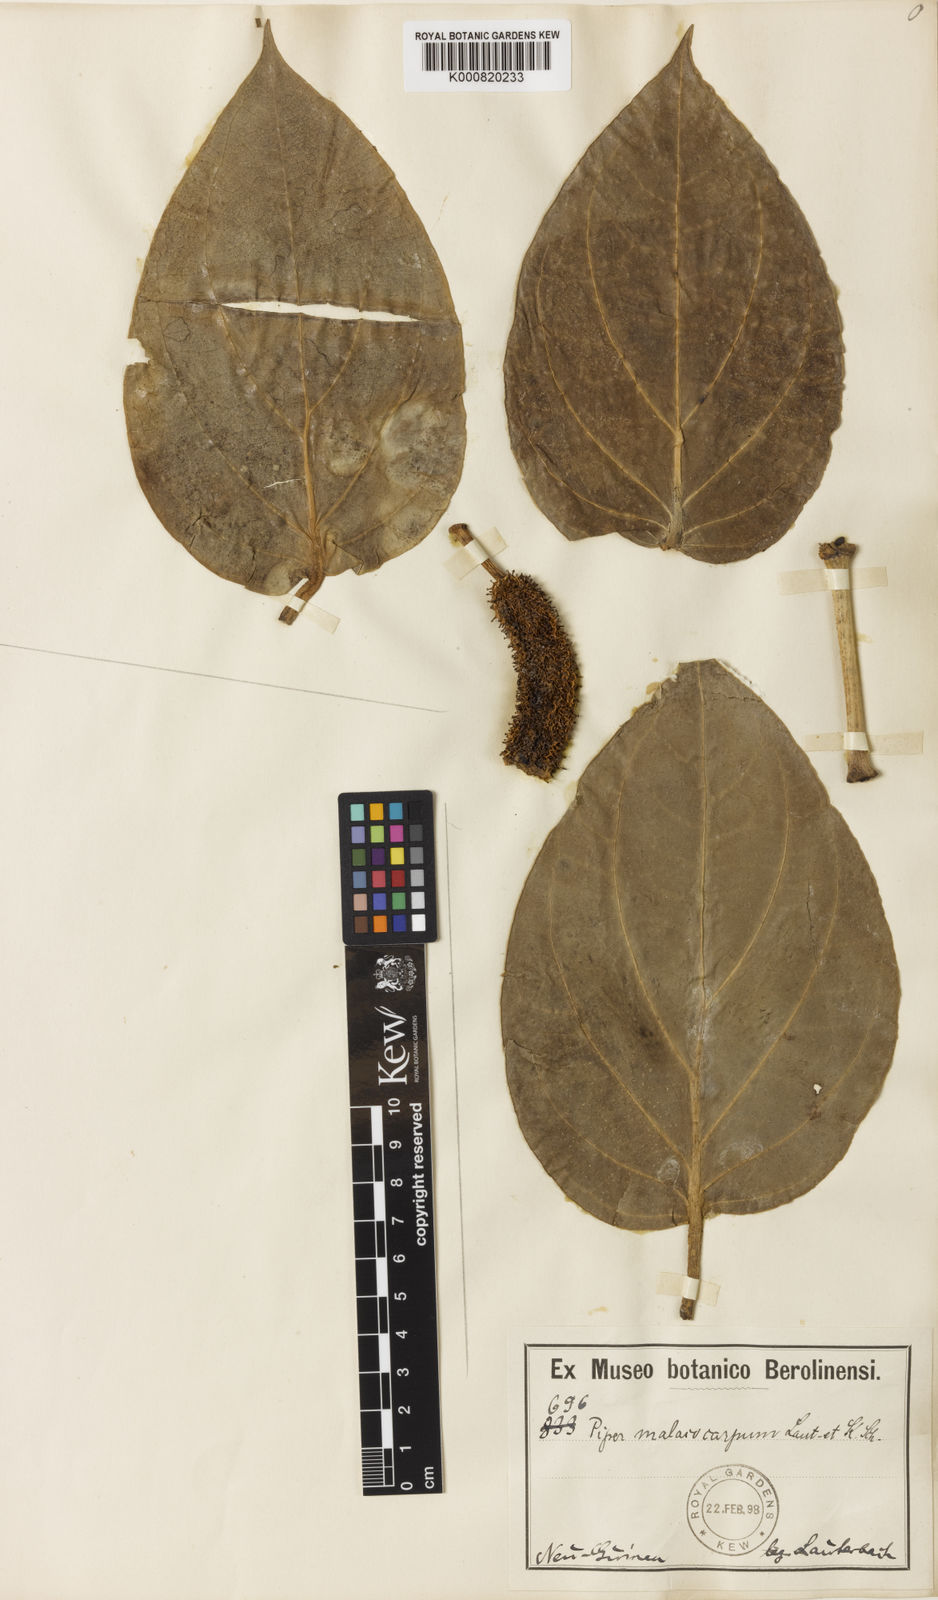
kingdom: Plantae
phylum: Tracheophyta
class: Magnoliopsida
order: Piperales
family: Piperaceae
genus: Piper
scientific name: Piper malacocarpum
